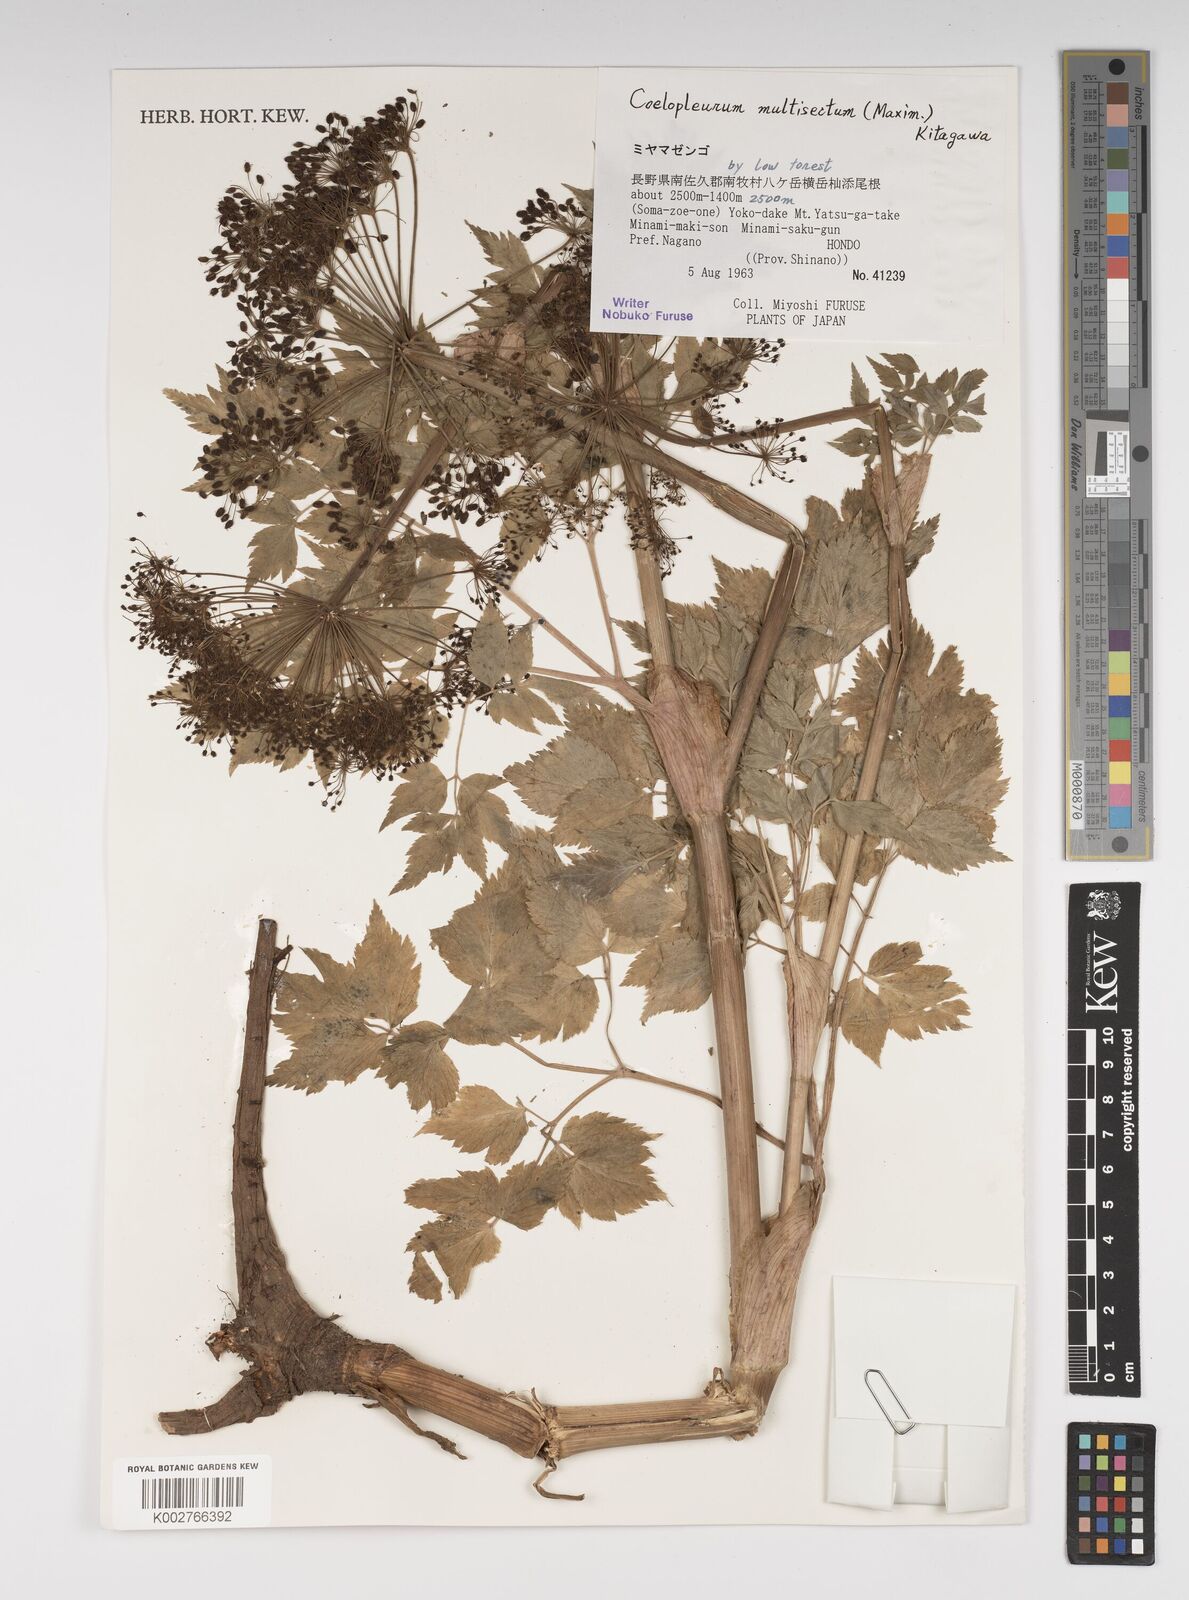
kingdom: Plantae
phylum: Tracheophyta
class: Magnoliopsida
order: Apiales
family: Apiaceae
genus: Angelica
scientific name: Angelica
